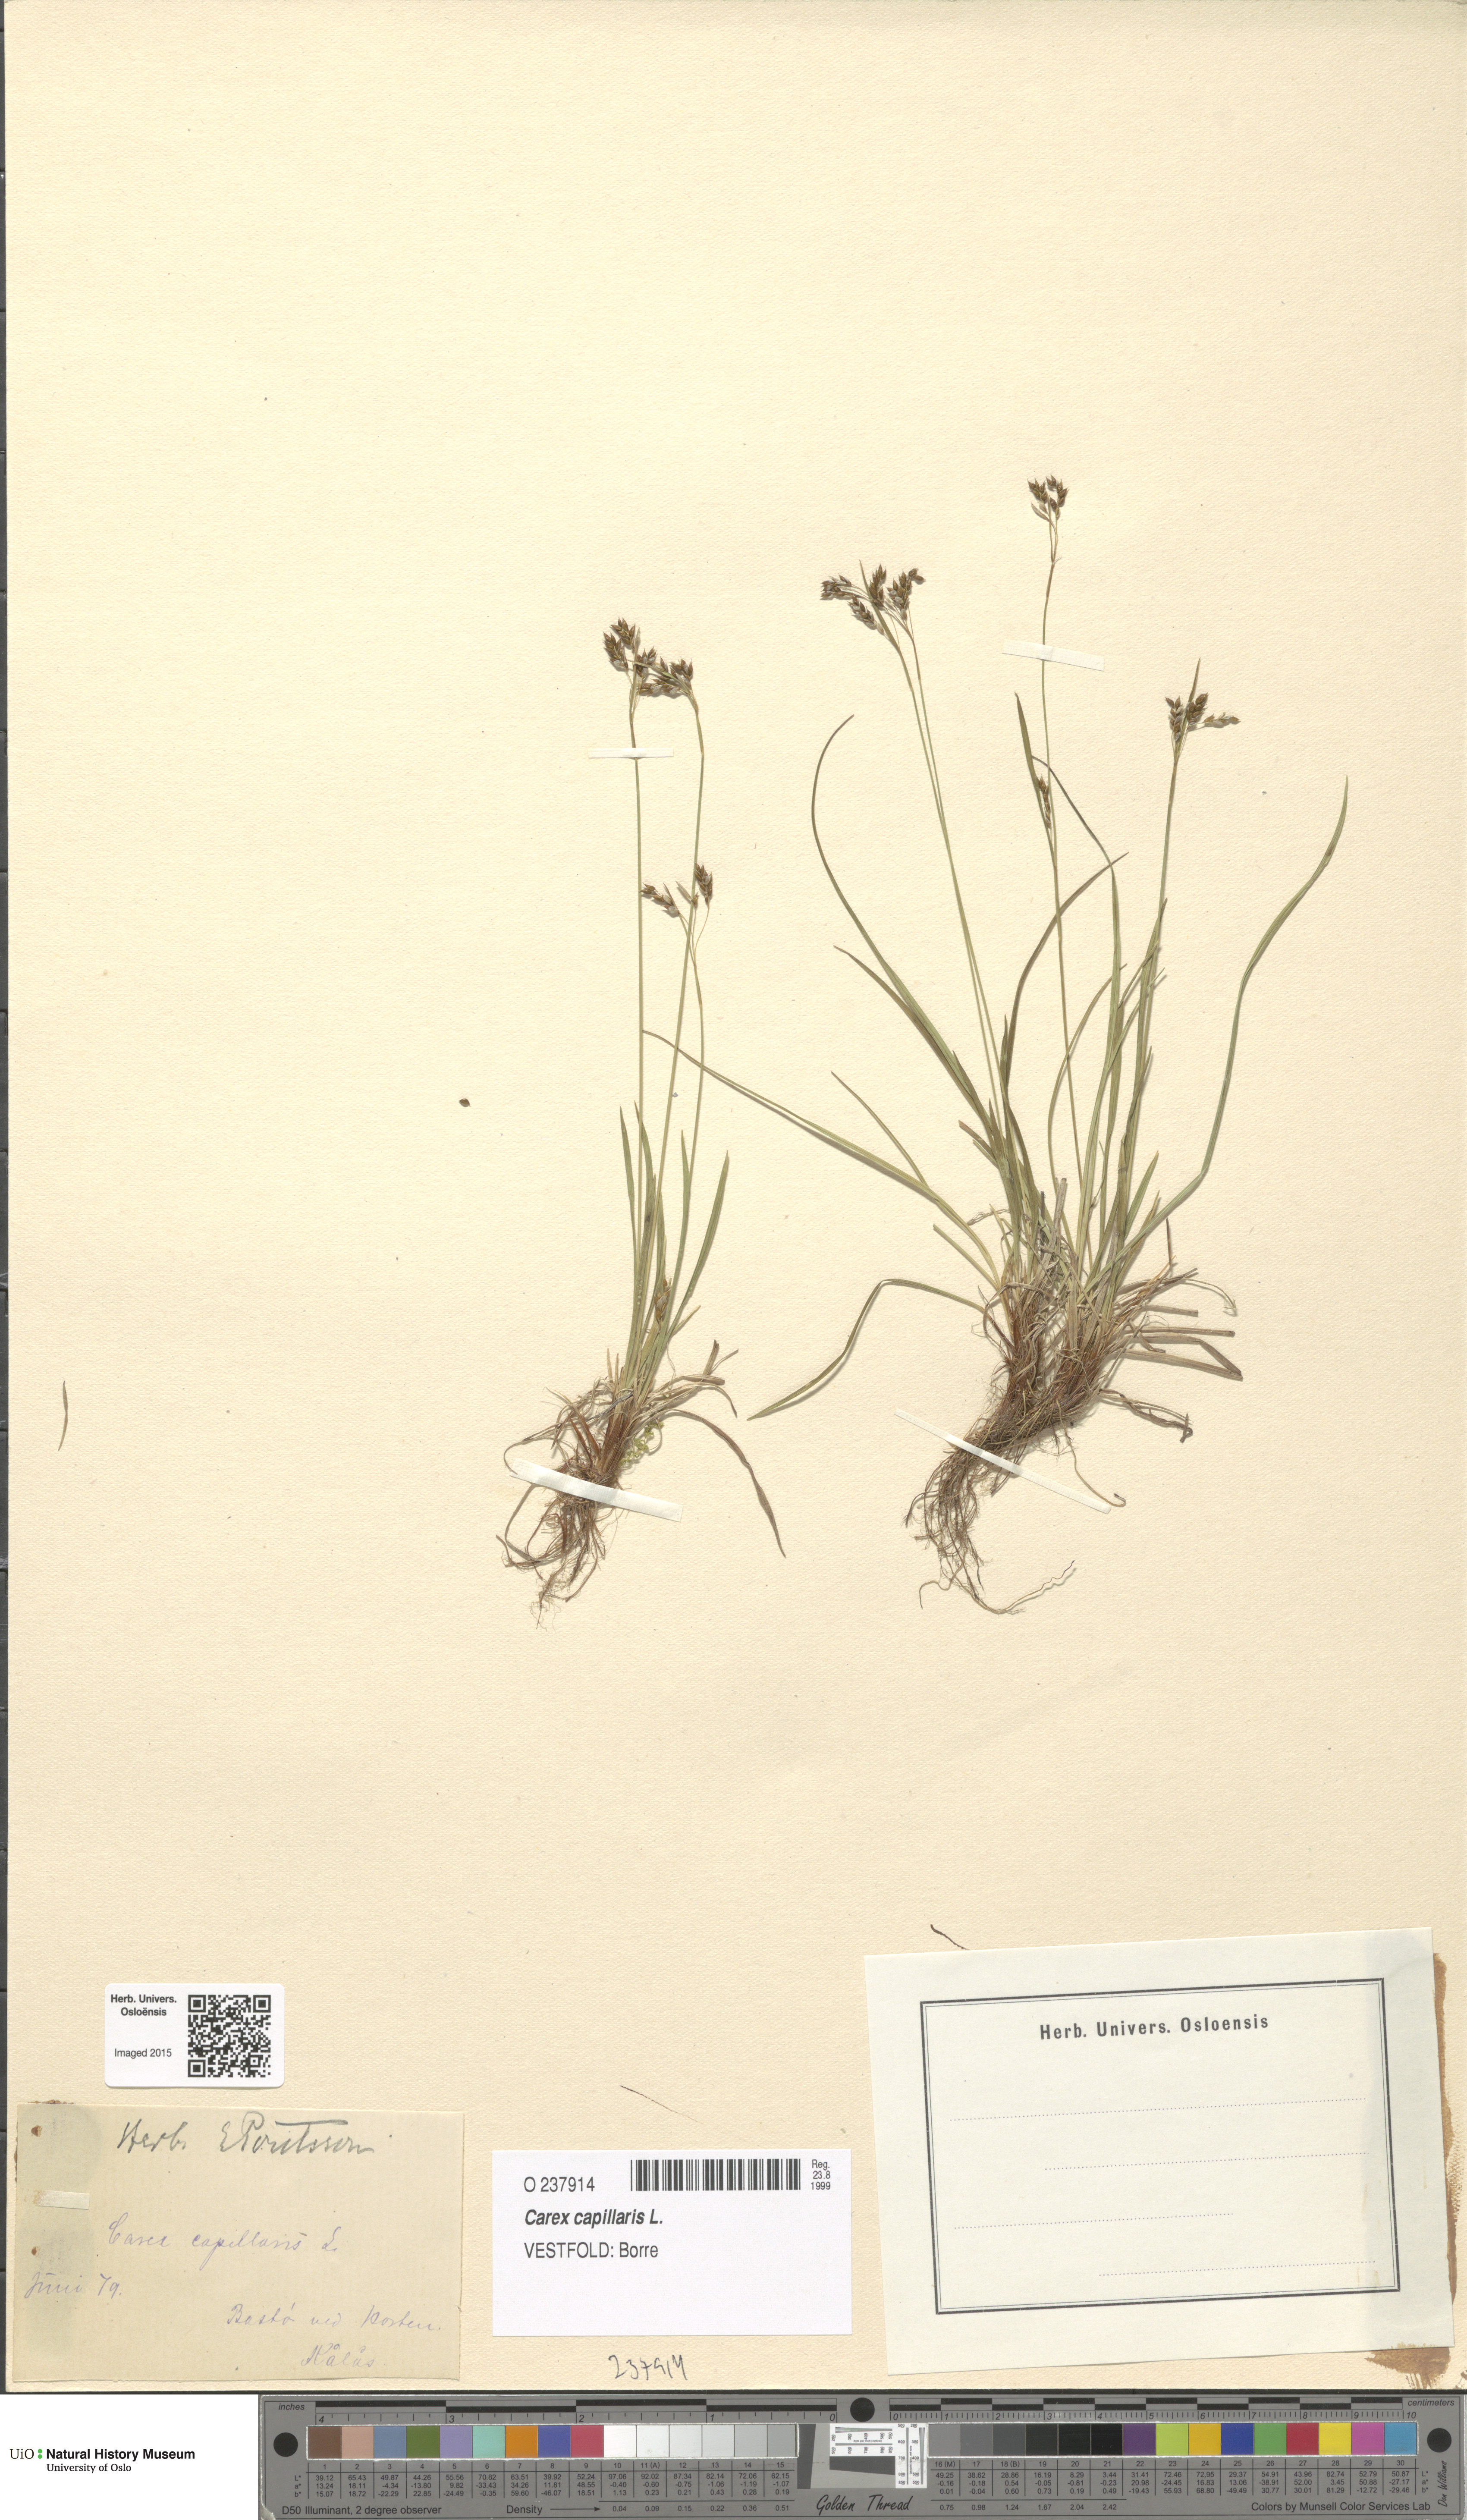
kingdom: Plantae
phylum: Tracheophyta
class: Liliopsida
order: Poales
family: Cyperaceae
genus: Carex
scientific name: Carex capillaris
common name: Hair sedge
